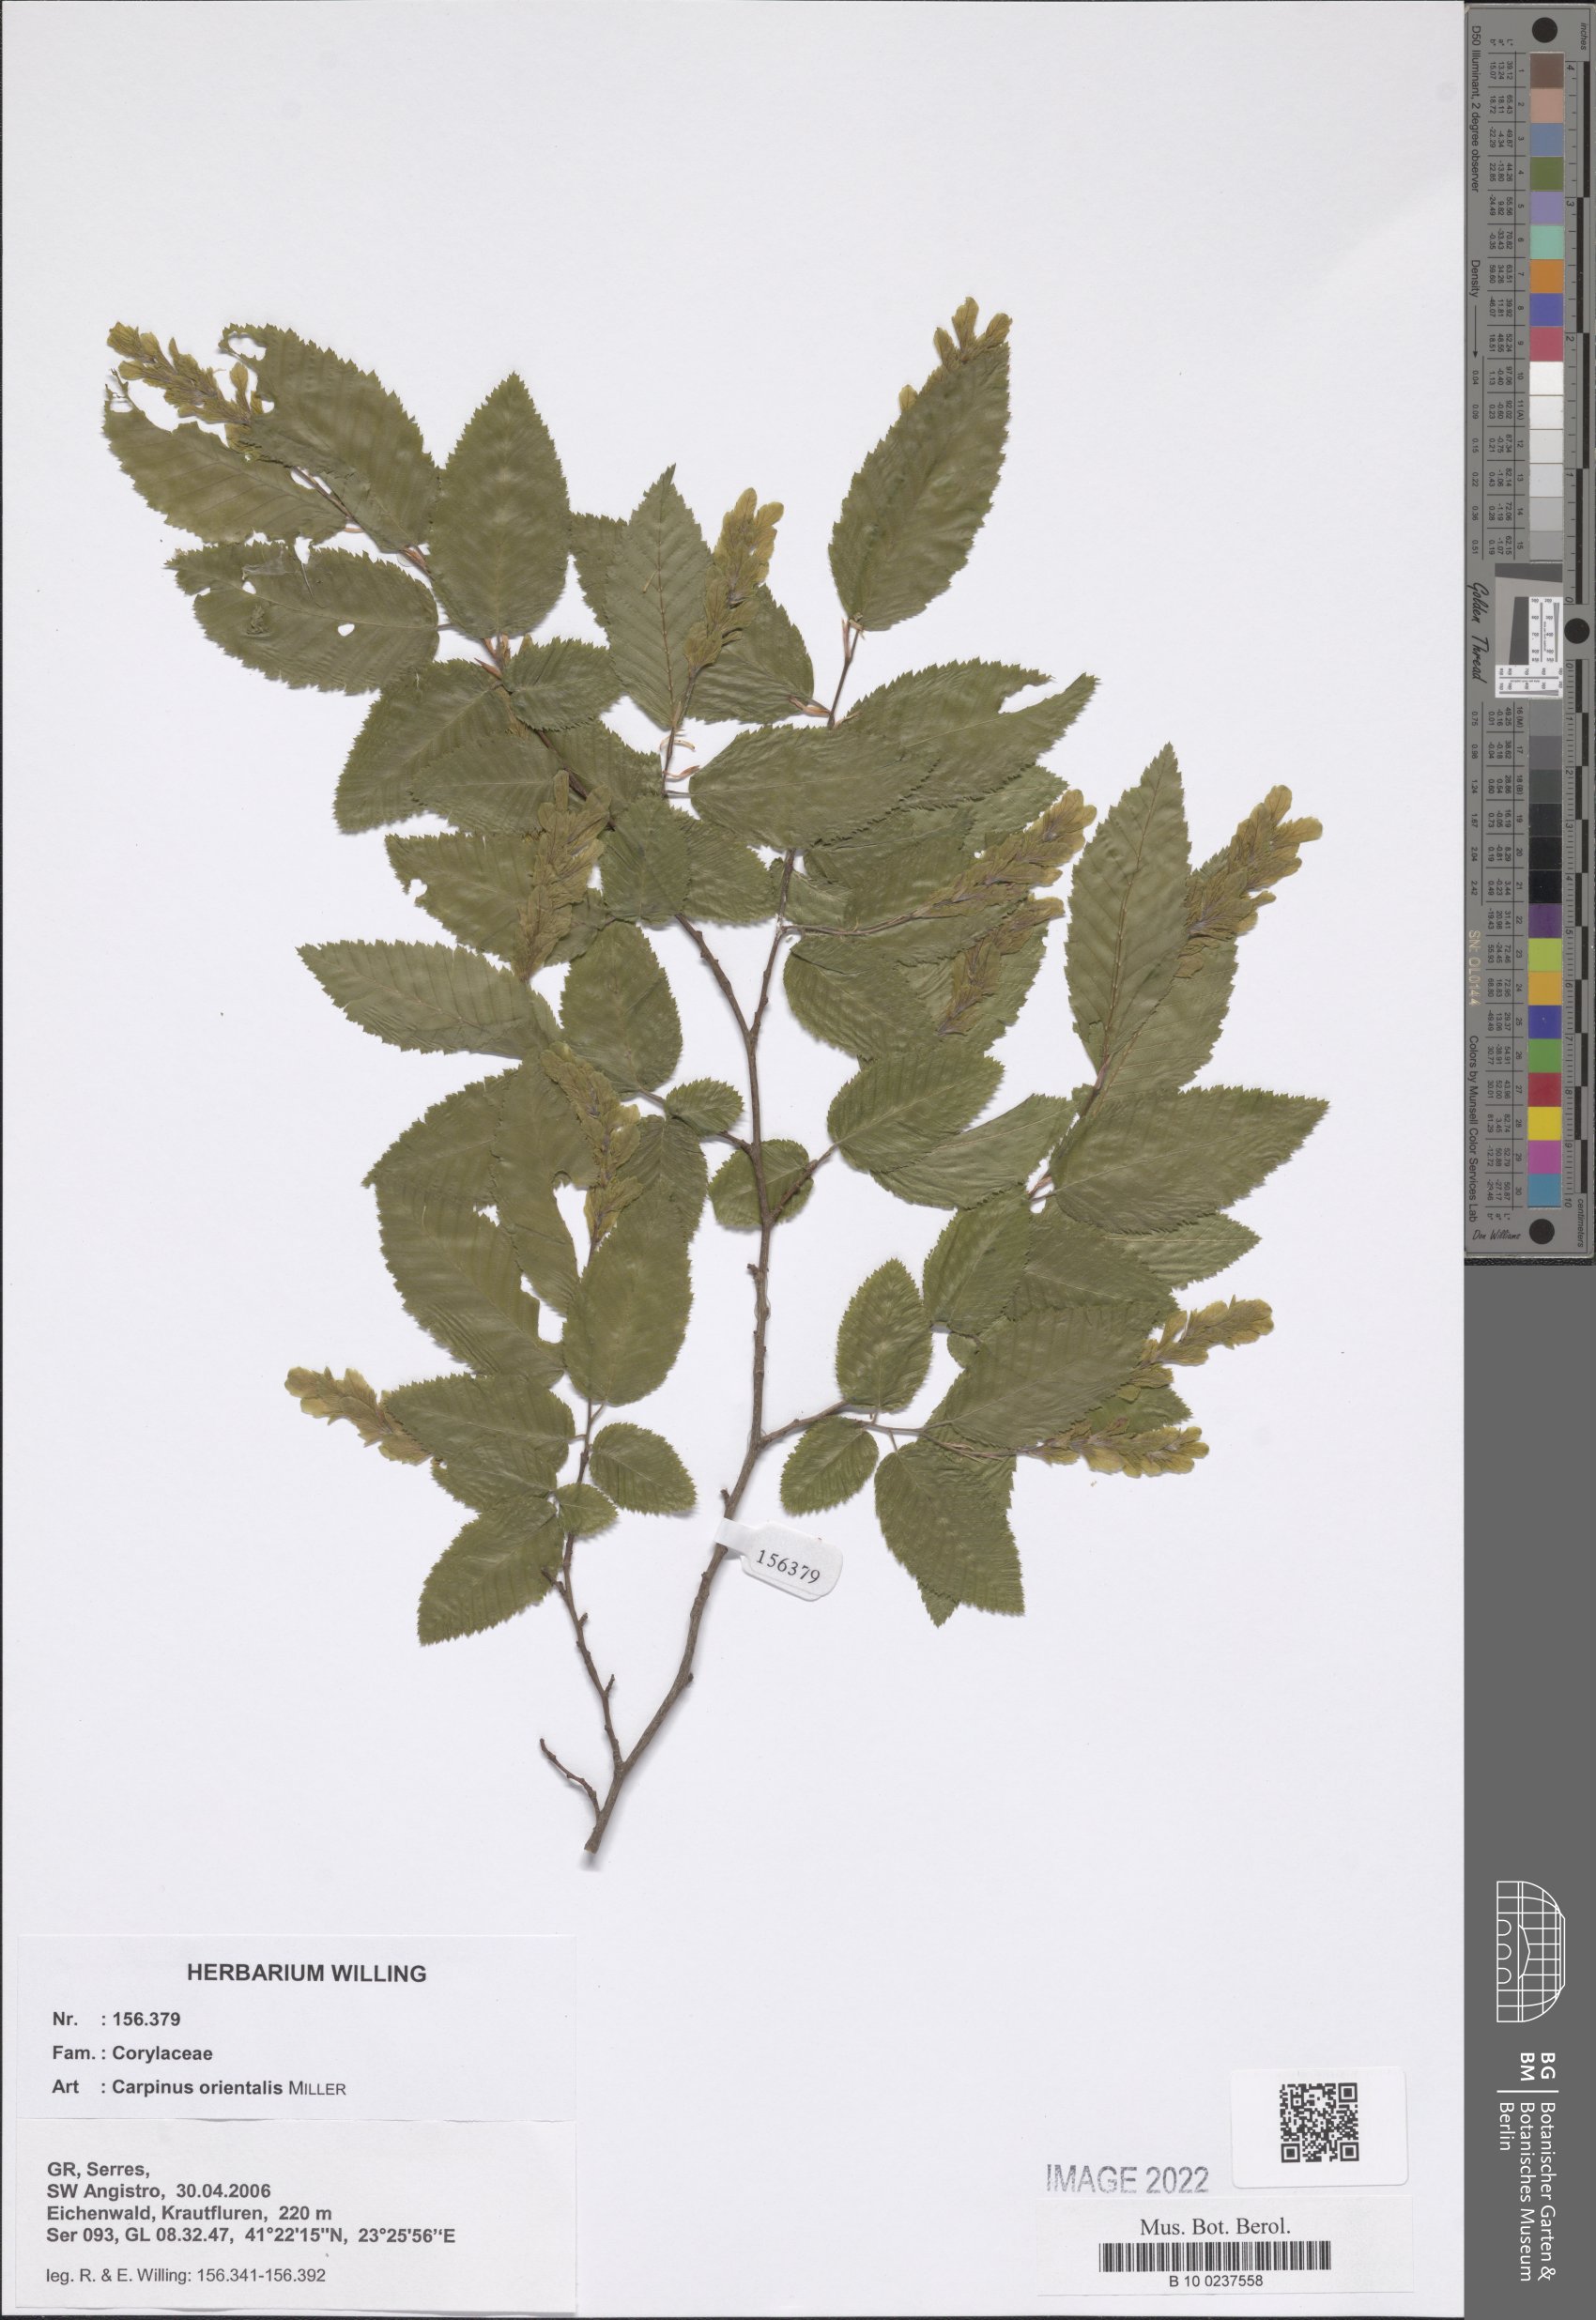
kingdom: Plantae
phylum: Tracheophyta
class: Magnoliopsida
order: Fagales
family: Betulaceae
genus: Carpinus
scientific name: Carpinus orientalis
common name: Eastern hornbeam
